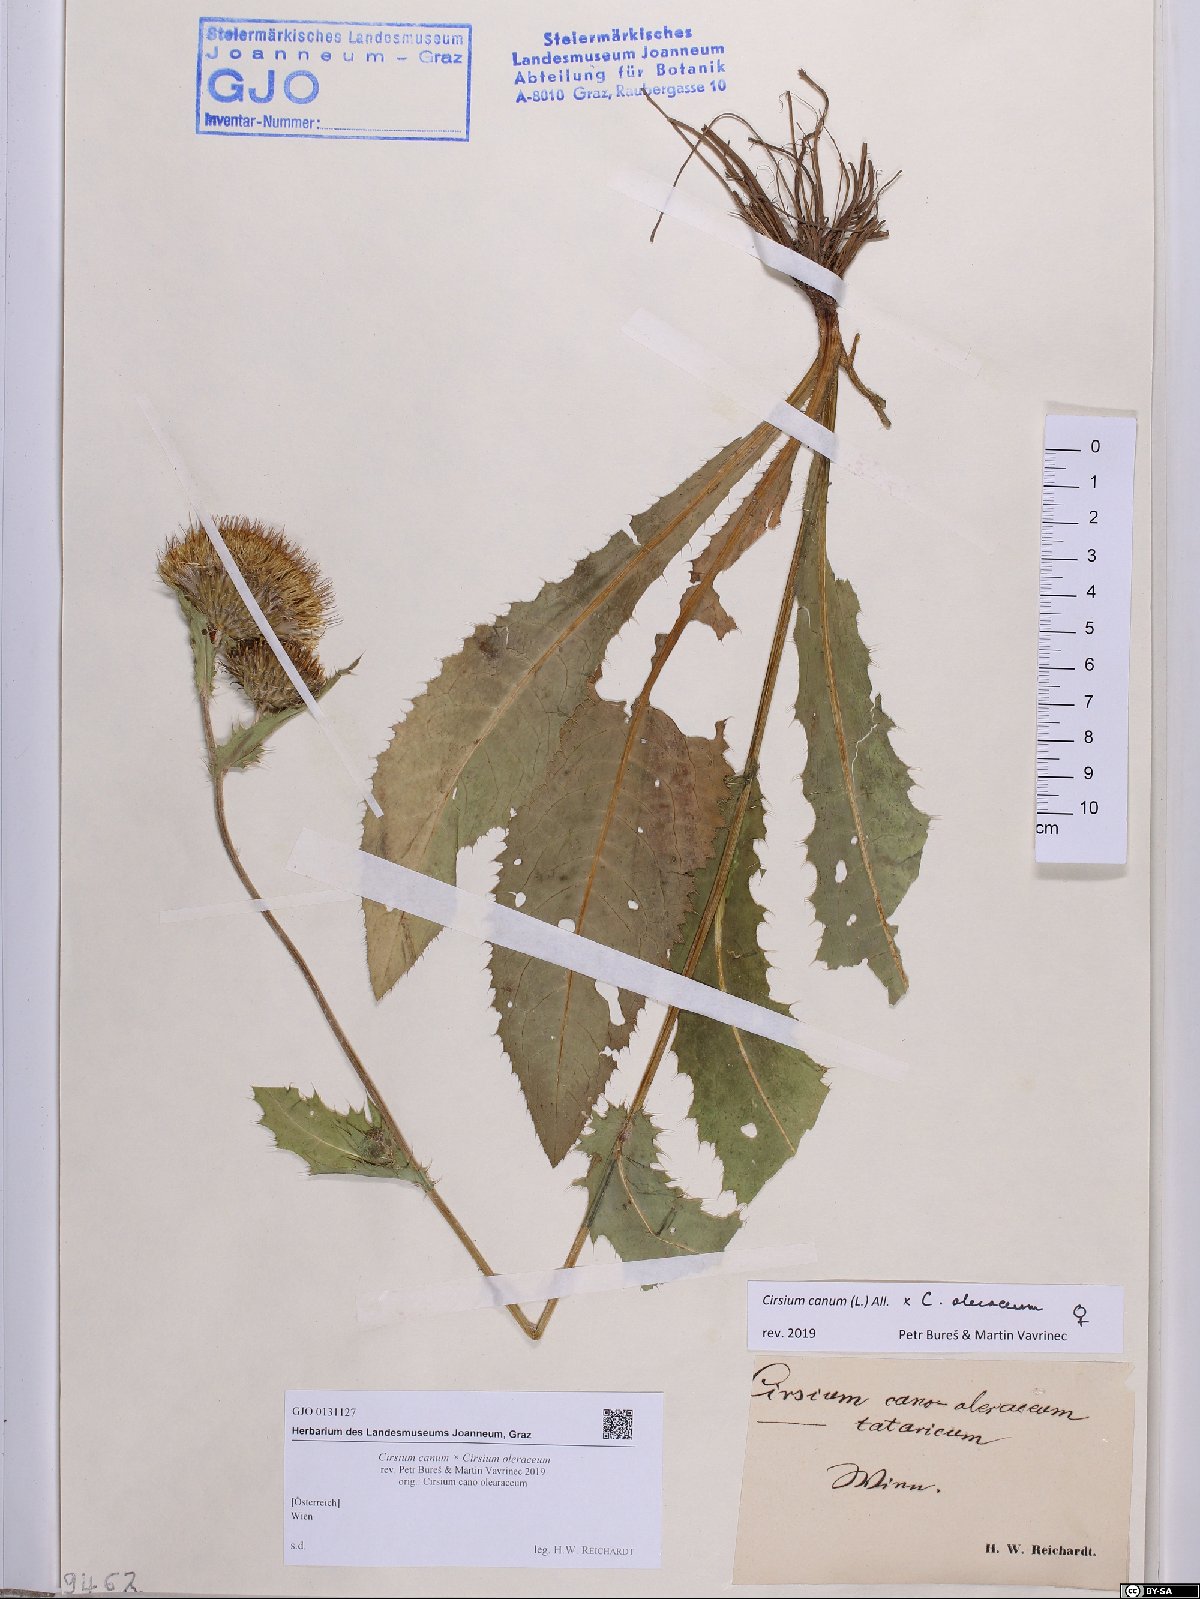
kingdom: Plantae
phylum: Tracheophyta
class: Magnoliopsida
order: Asterales
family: Asteraceae
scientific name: Asteraceae
